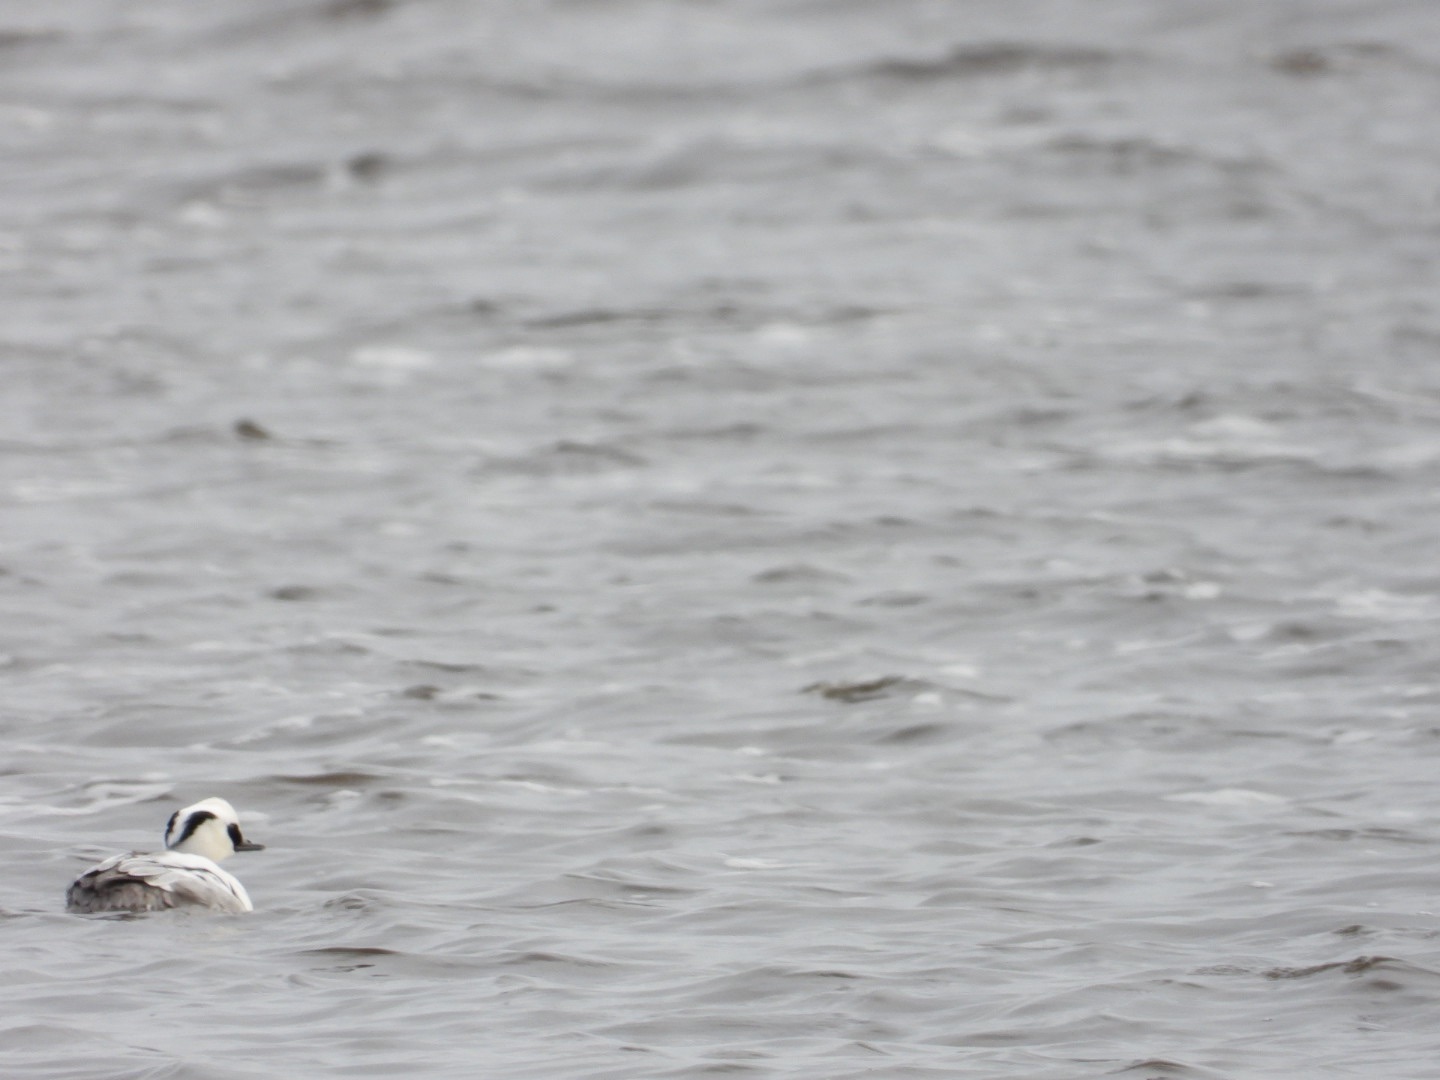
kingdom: Animalia
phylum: Chordata
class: Aves
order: Anseriformes
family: Anatidae
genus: Mergellus
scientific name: Mergellus albellus
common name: Lille skallesluger
